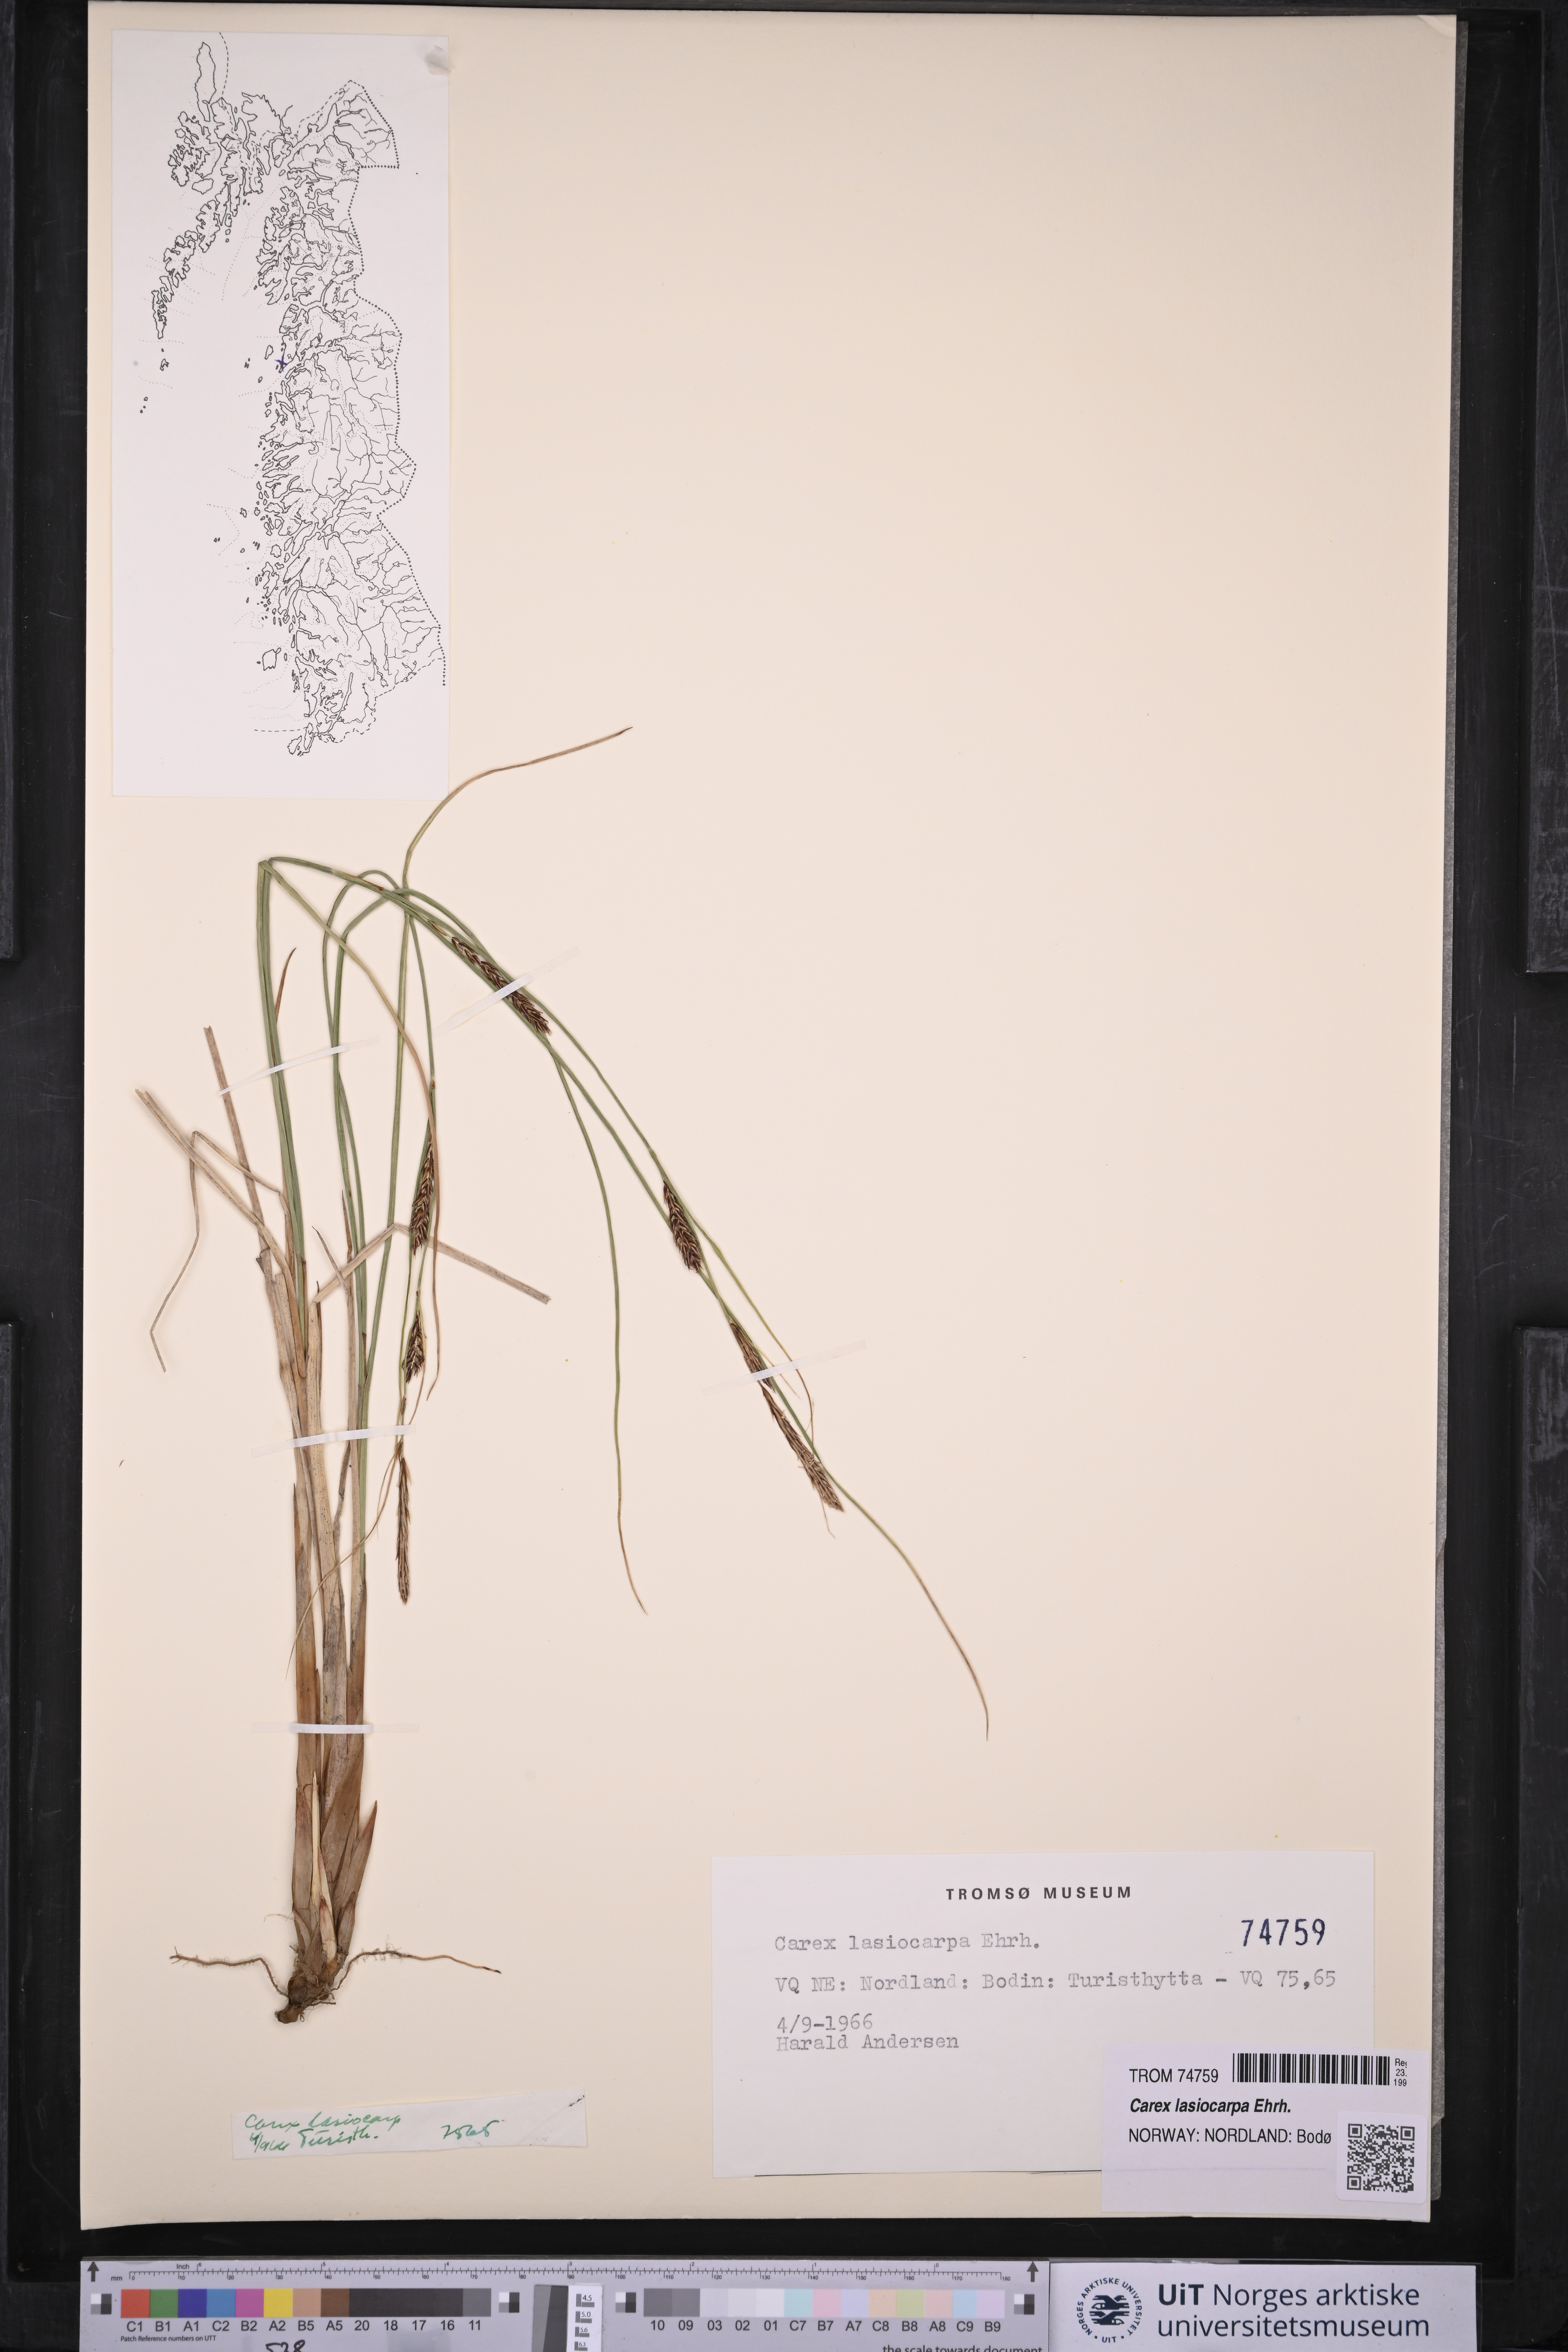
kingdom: Plantae
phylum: Tracheophyta
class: Liliopsida
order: Poales
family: Cyperaceae
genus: Carex
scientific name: Carex lasiocarpa
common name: Slender sedge
